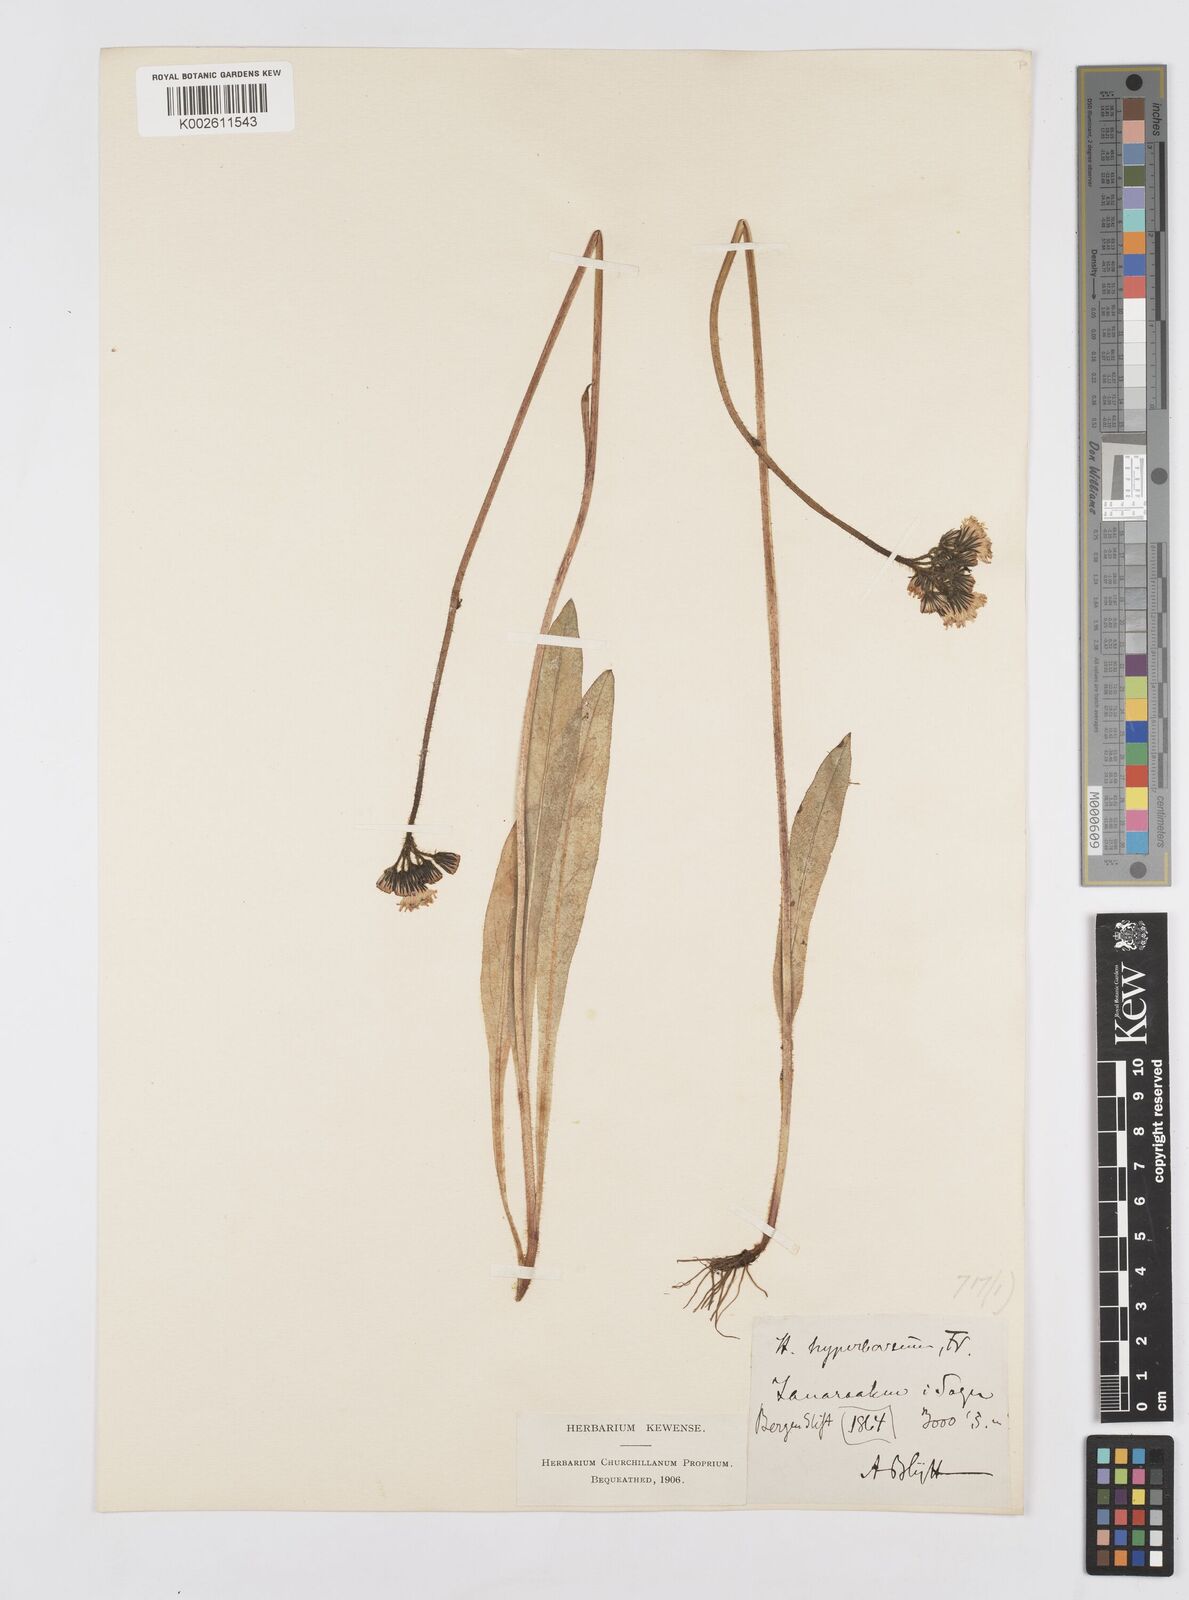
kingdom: Plantae
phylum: Tracheophyta
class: Magnoliopsida
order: Asterales
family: Asteraceae
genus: Pilosella
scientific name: Pilosella hyperborea
